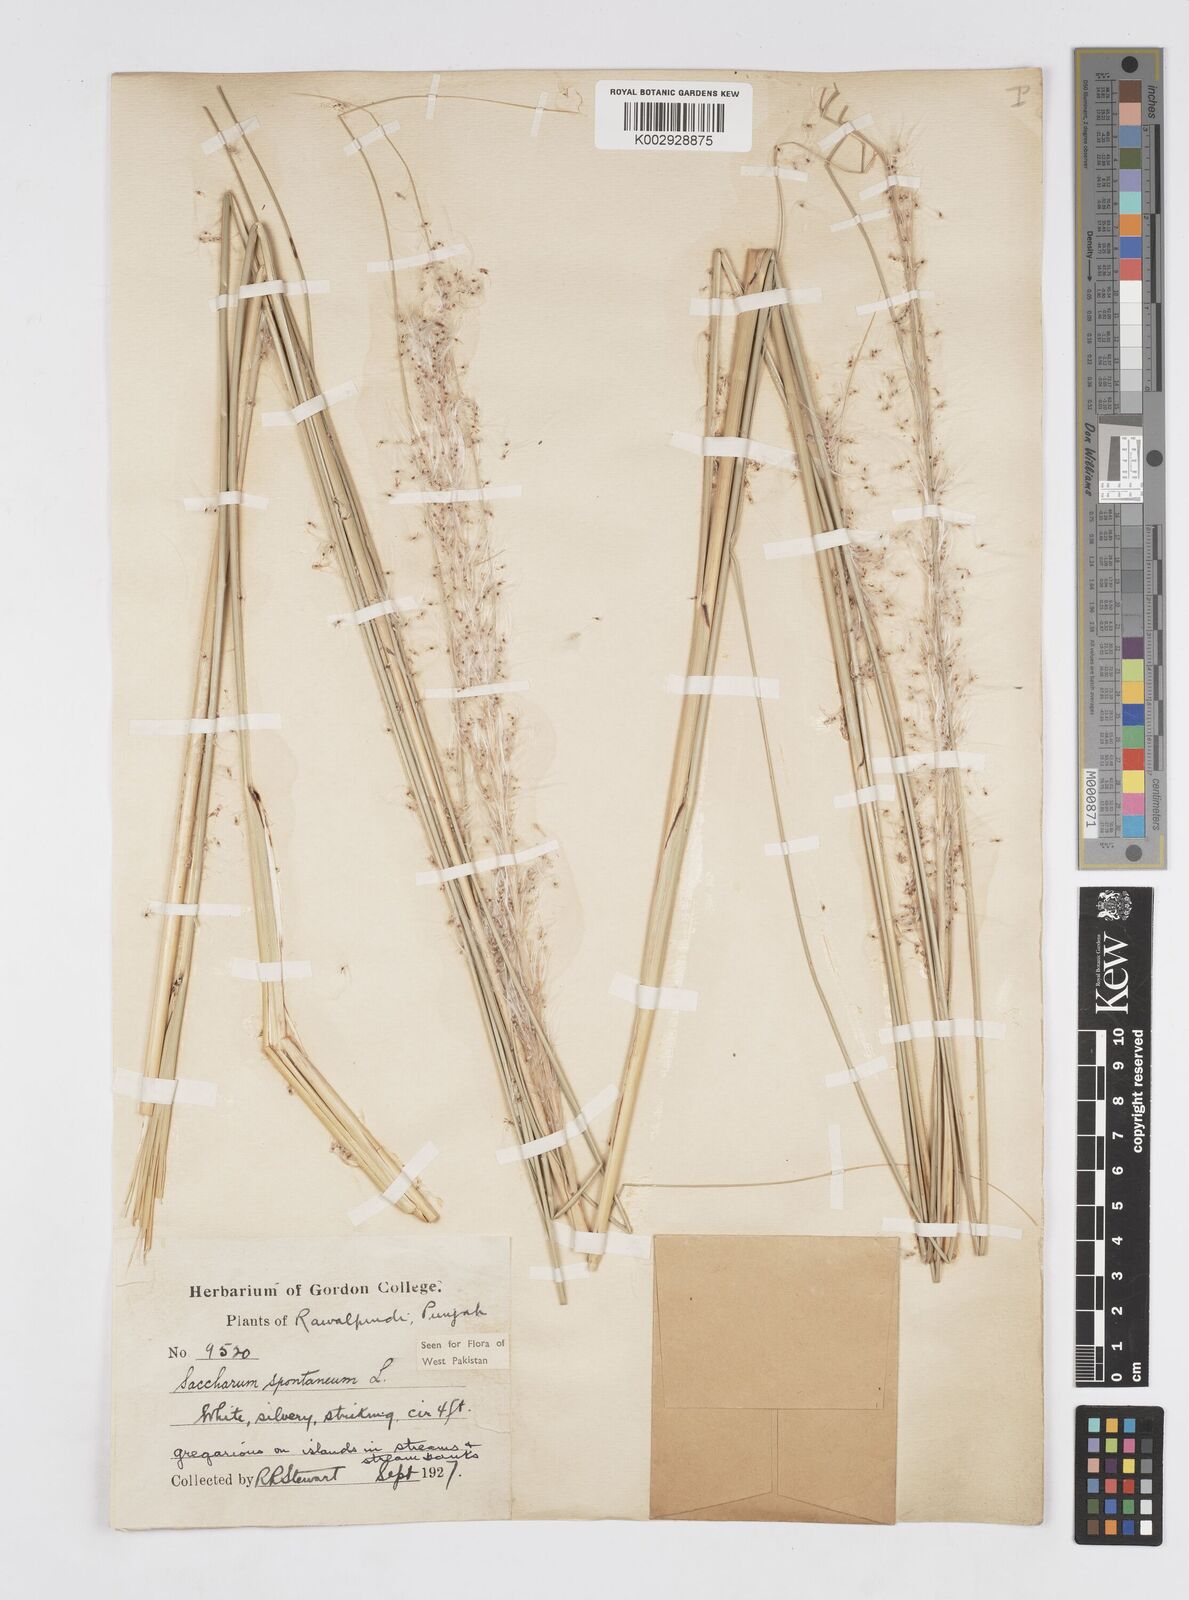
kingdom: Plantae
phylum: Tracheophyta
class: Liliopsida
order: Poales
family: Poaceae
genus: Saccharum
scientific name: Saccharum spontaneum
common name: Wild sugarcane
